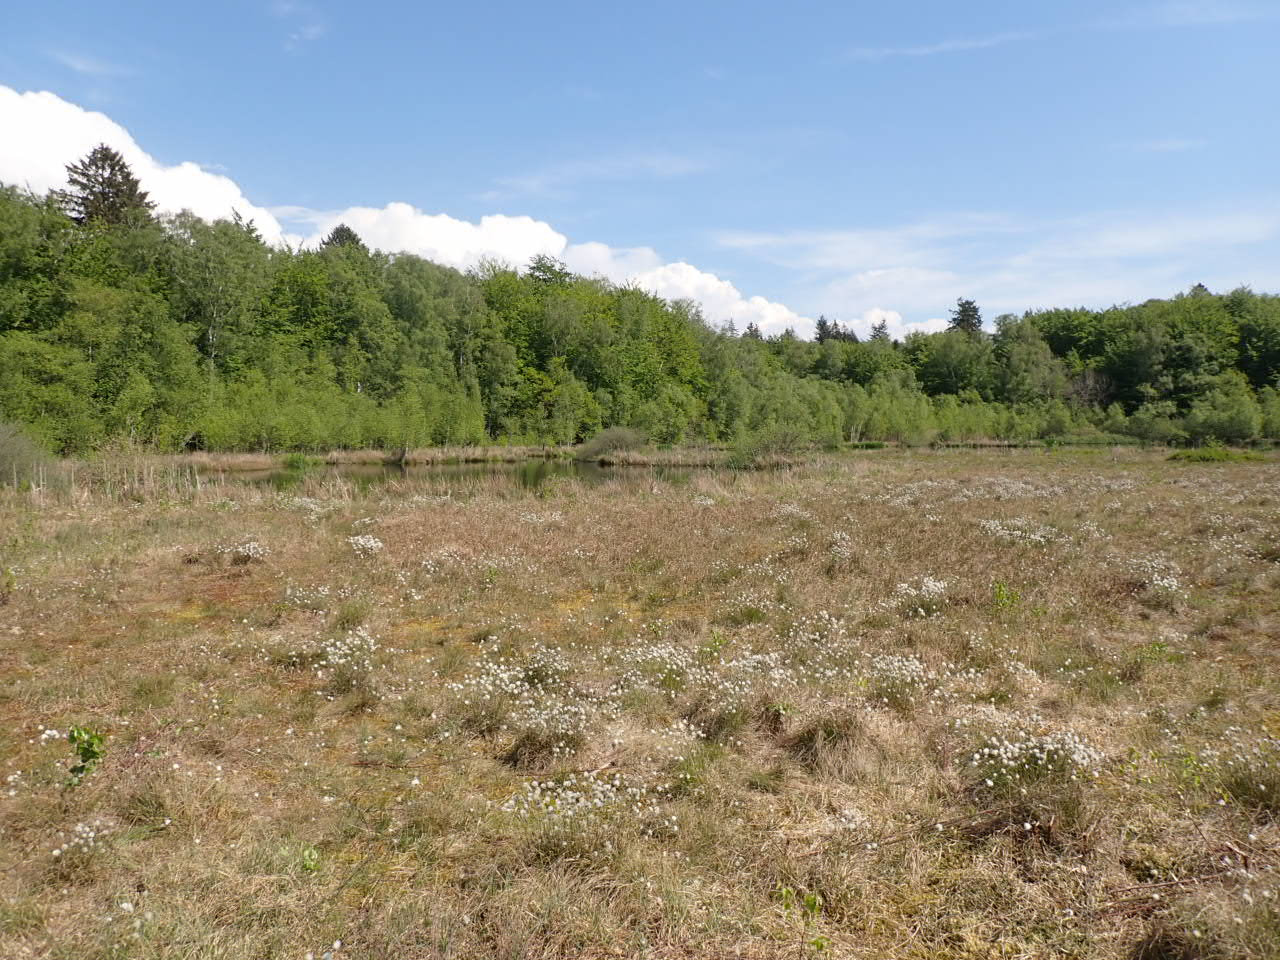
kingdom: Plantae
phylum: Tracheophyta
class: Liliopsida
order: Poales
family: Cyperaceae
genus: Eriophorum
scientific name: Eriophorum vaginatum
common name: Tue-kæruld
